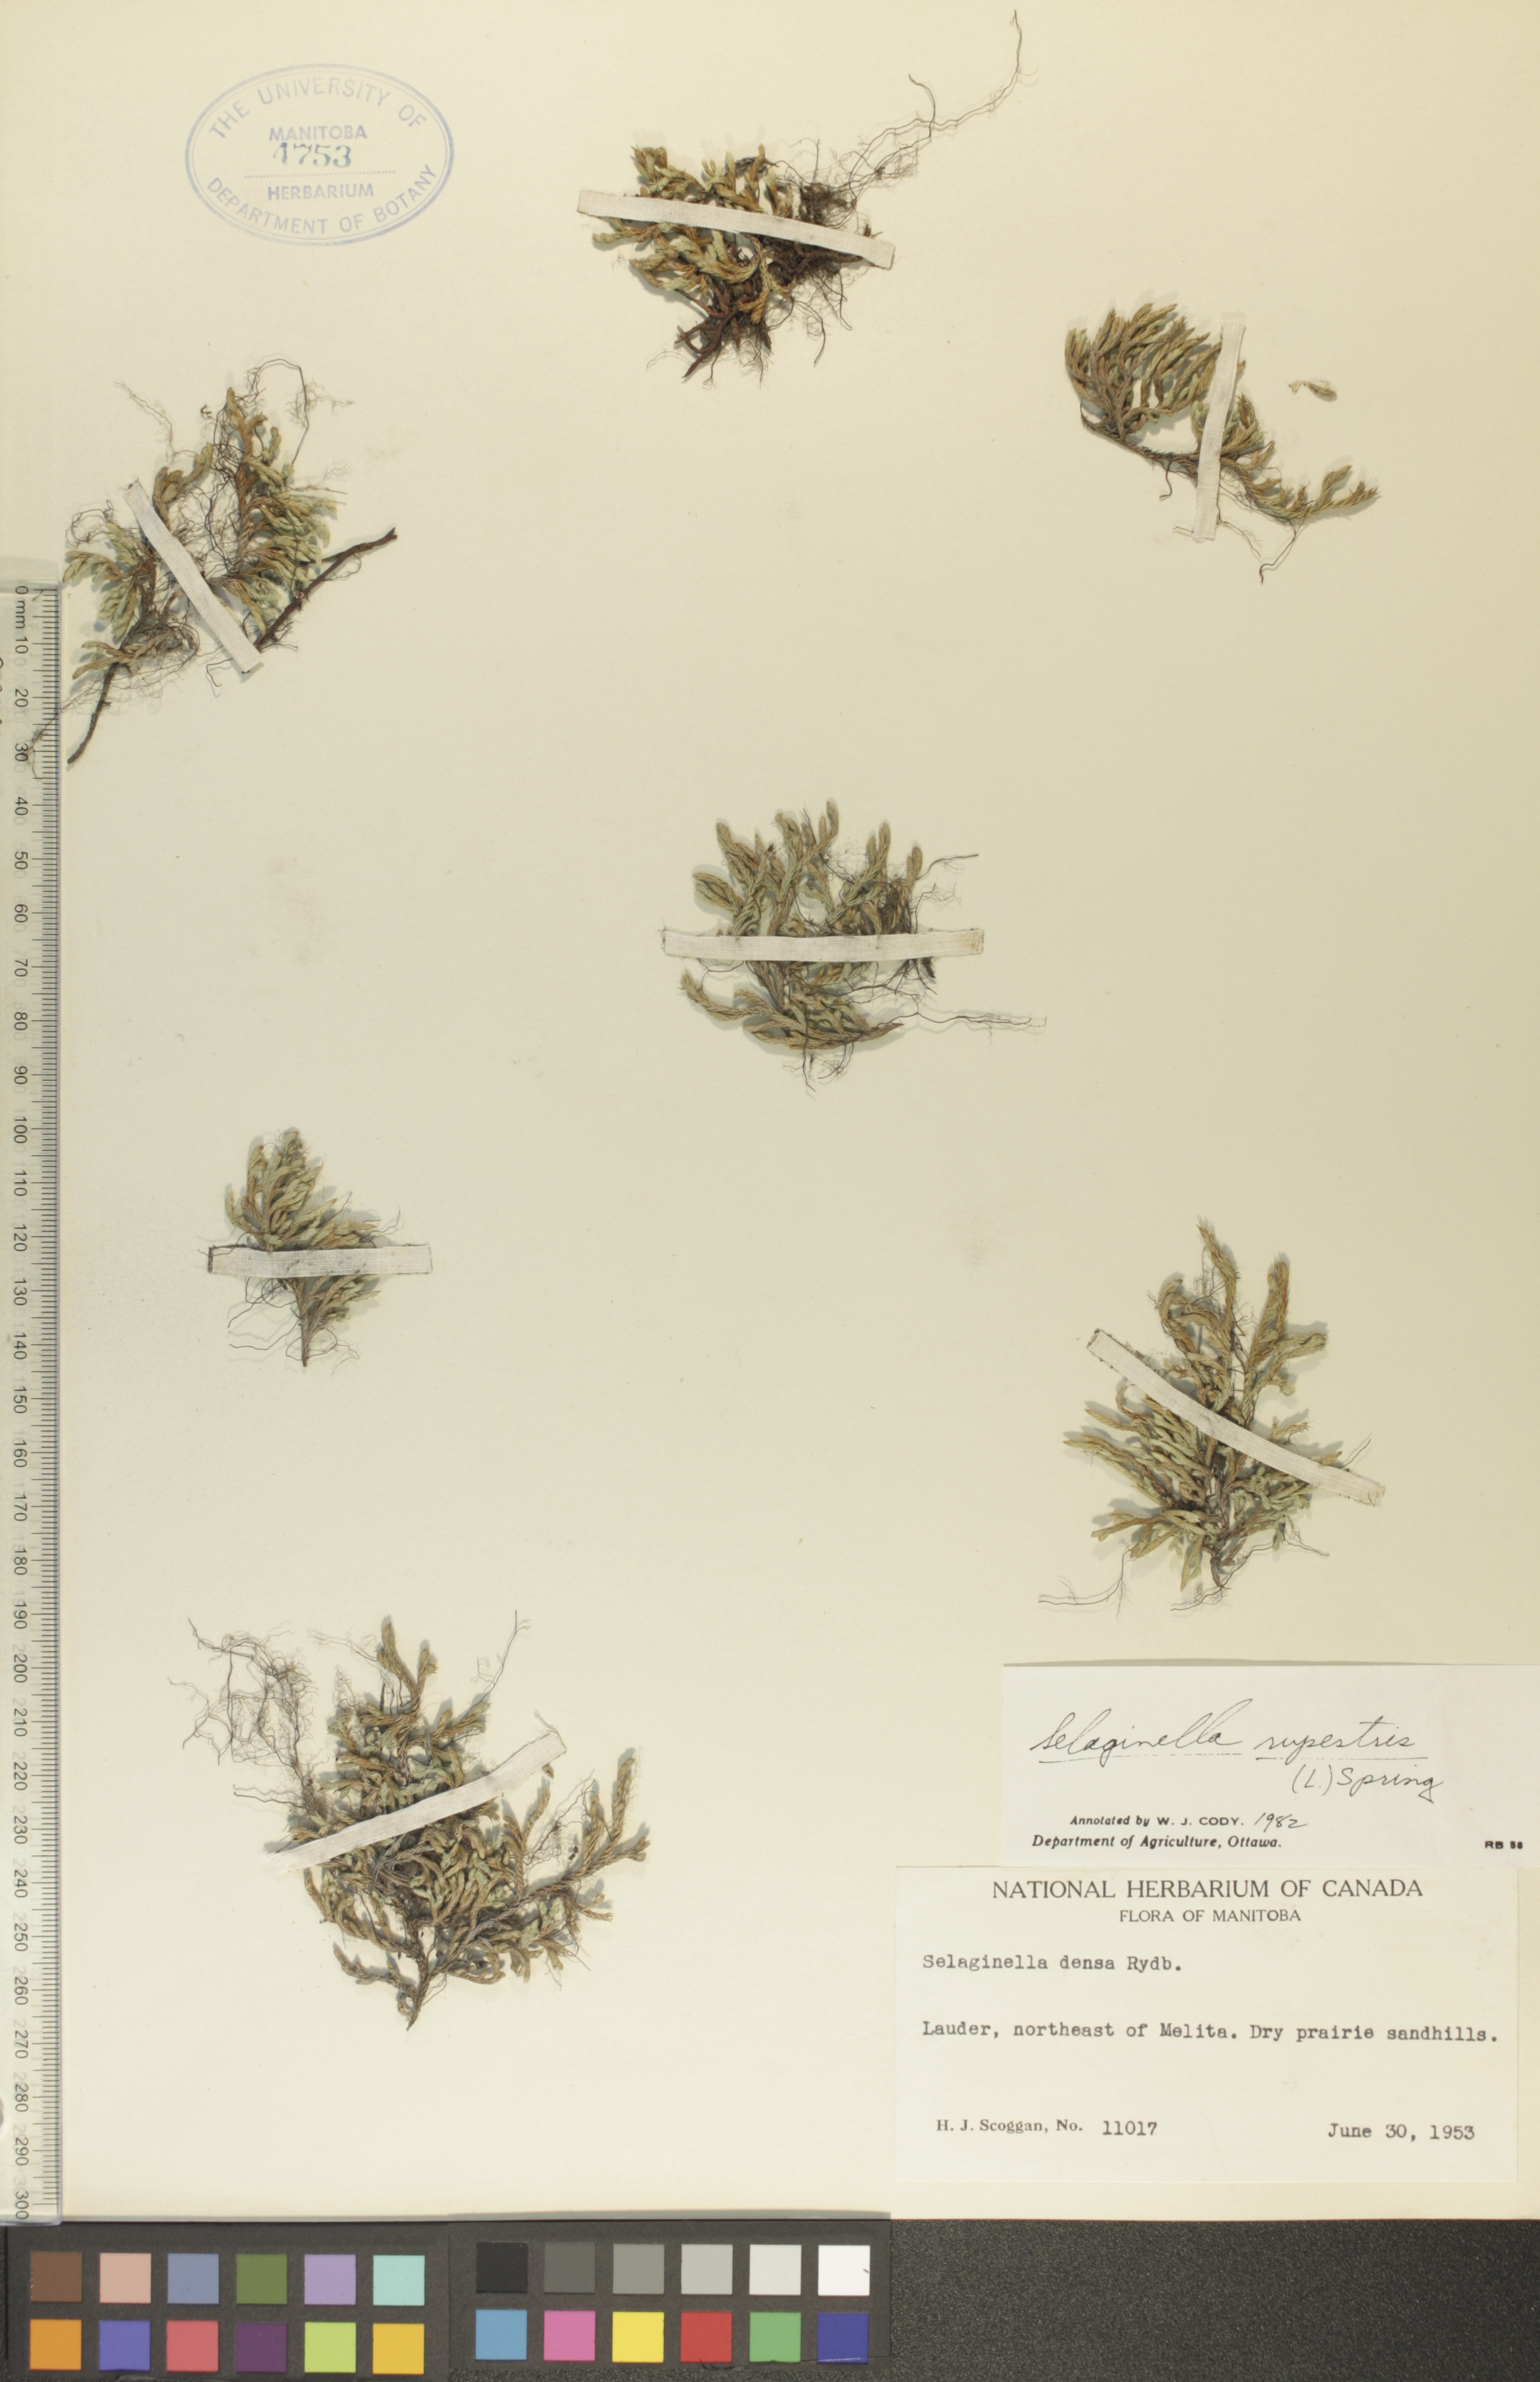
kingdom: Plantae
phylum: Tracheophyta
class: Lycopodiopsida
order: Selaginellales
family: Selaginellaceae
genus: Selaginella
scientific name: Selaginella rupestris
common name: Dwarf spikemoss
